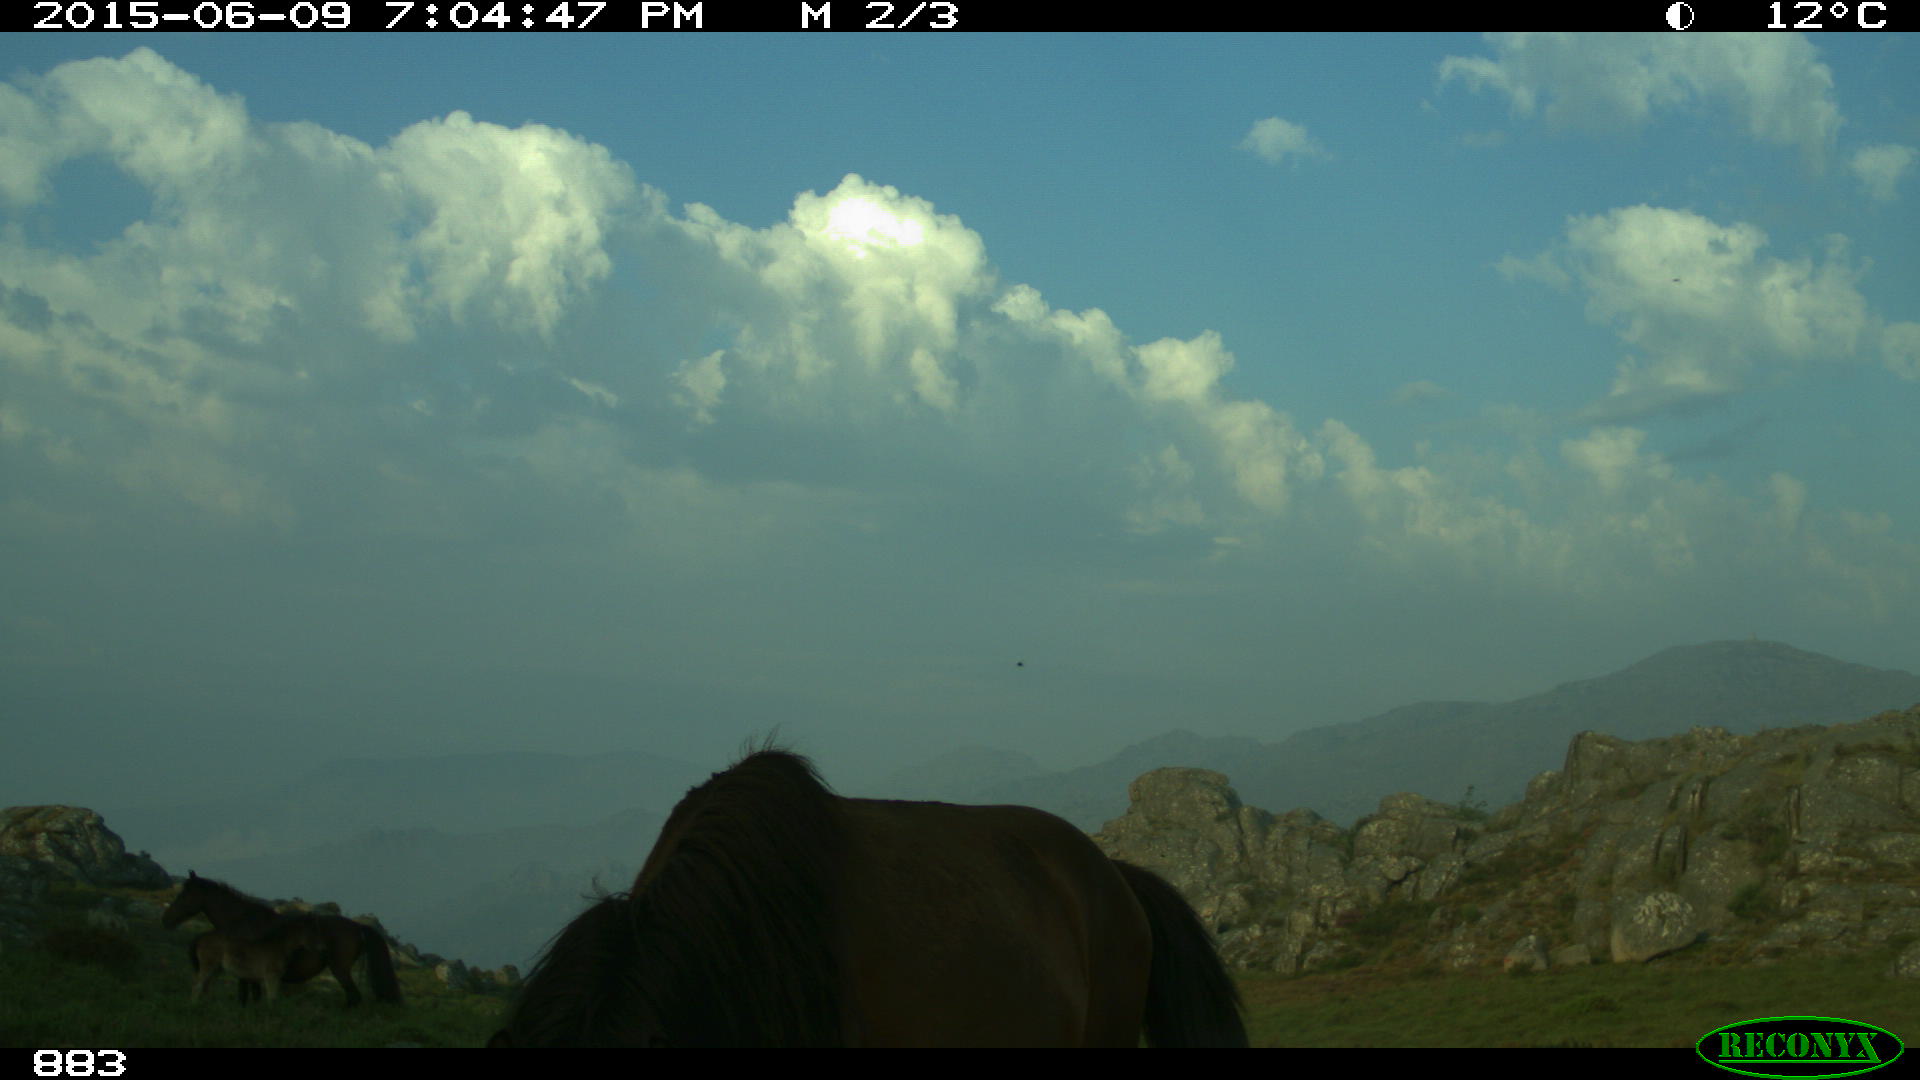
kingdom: Animalia
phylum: Chordata
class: Mammalia
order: Perissodactyla
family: Equidae
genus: Equus
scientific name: Equus caballus
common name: Horse
